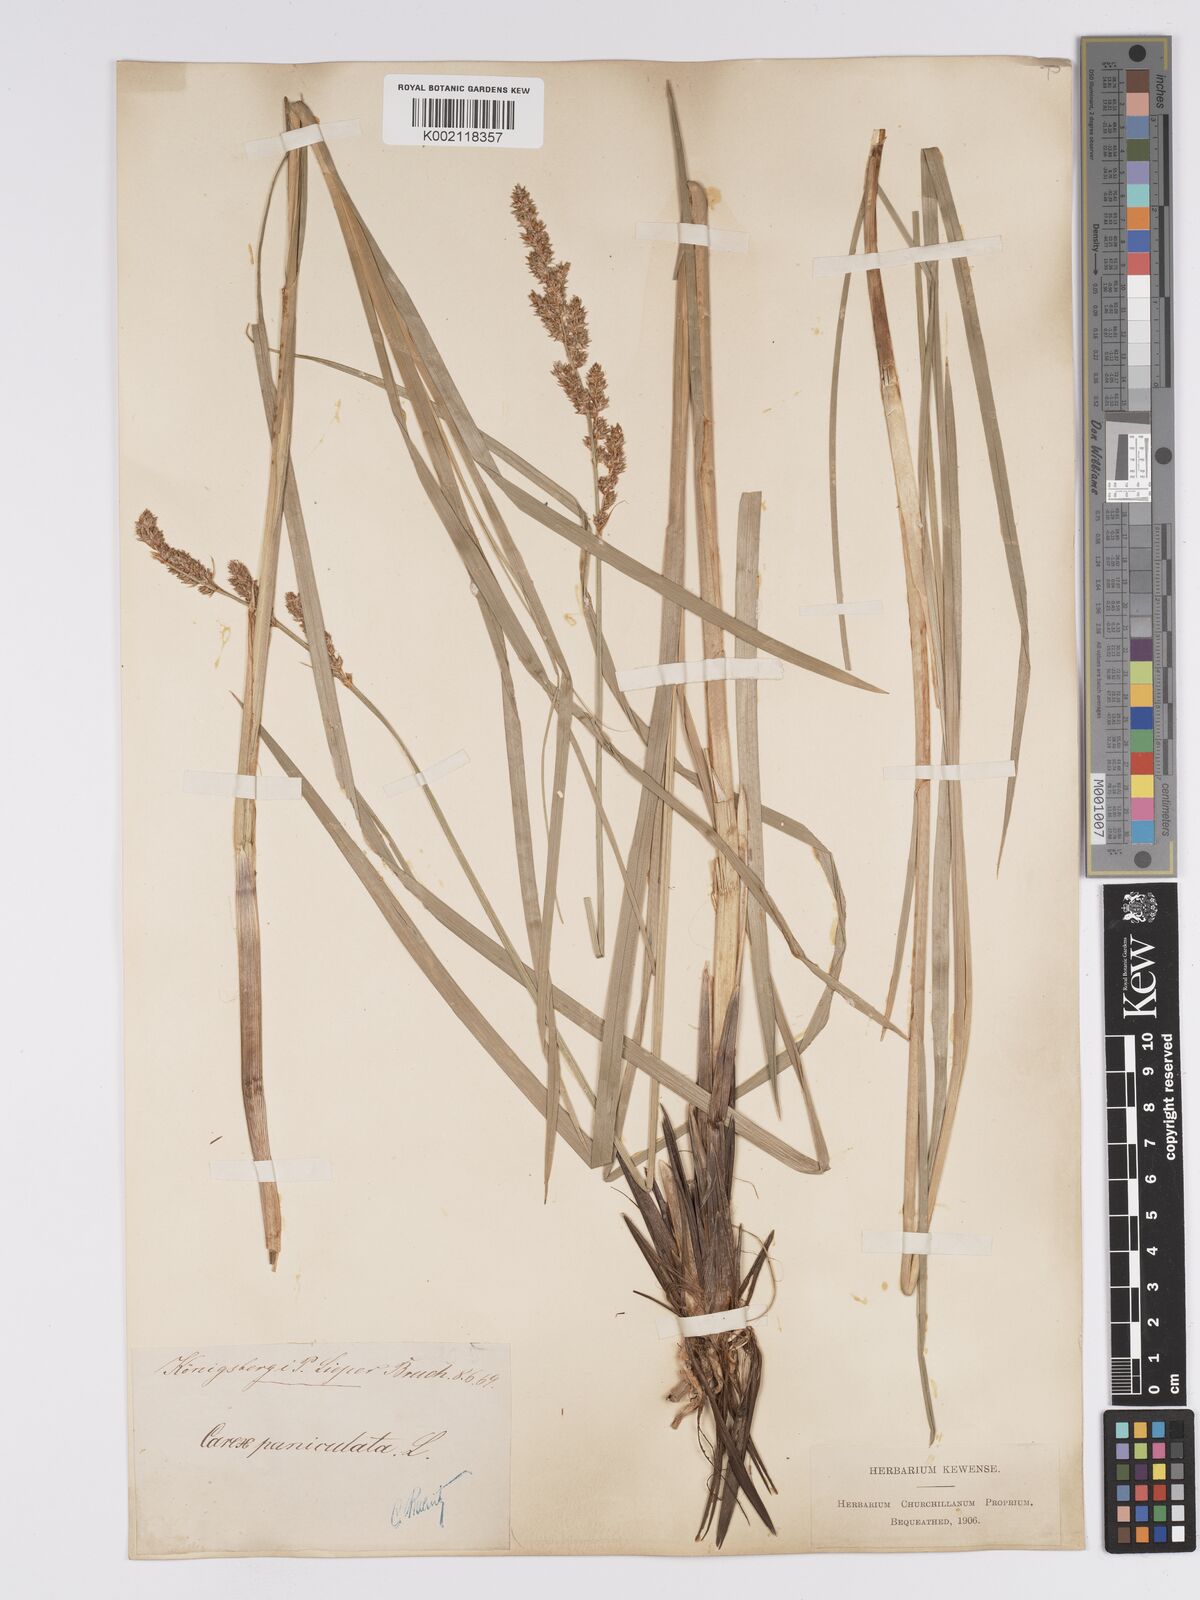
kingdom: Plantae
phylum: Tracheophyta
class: Liliopsida
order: Poales
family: Cyperaceae
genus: Carex
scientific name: Carex paniculata
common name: Greater tussock-sedge
